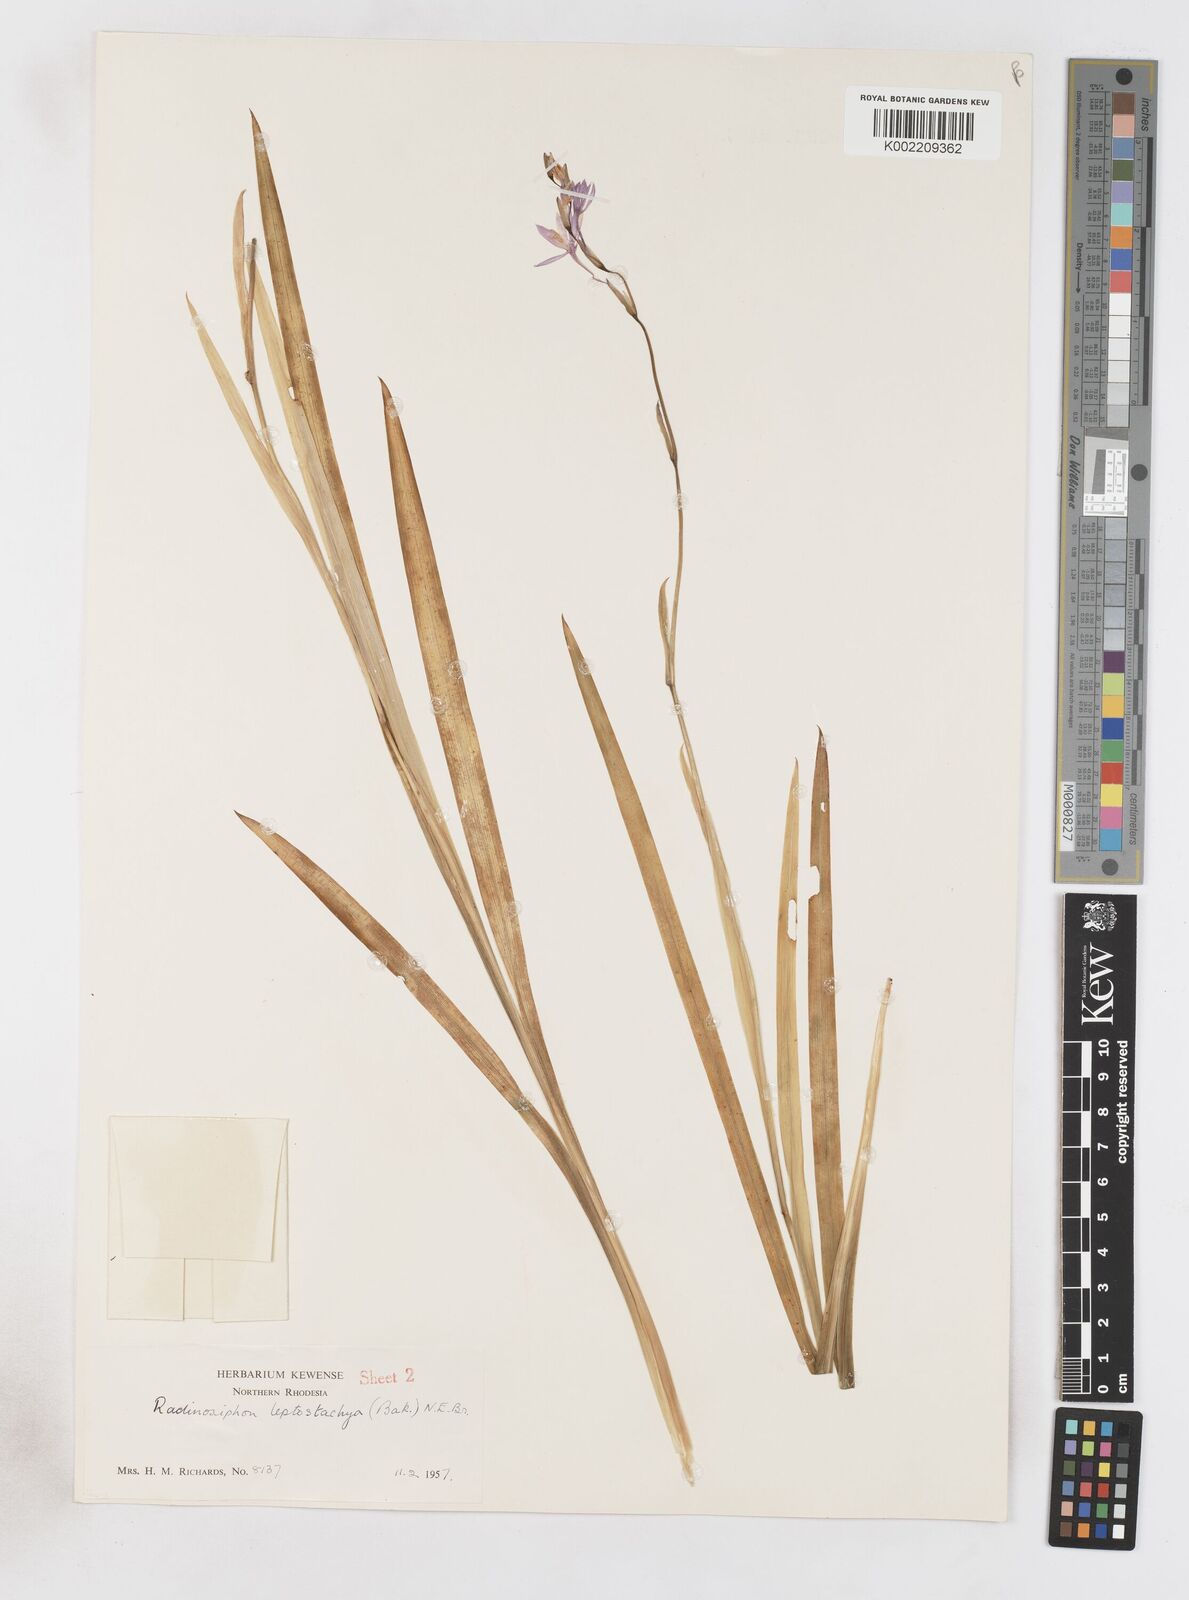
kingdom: Plantae
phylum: Tracheophyta
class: Liliopsida
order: Asparagales
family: Iridaceae
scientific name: Iridaceae
